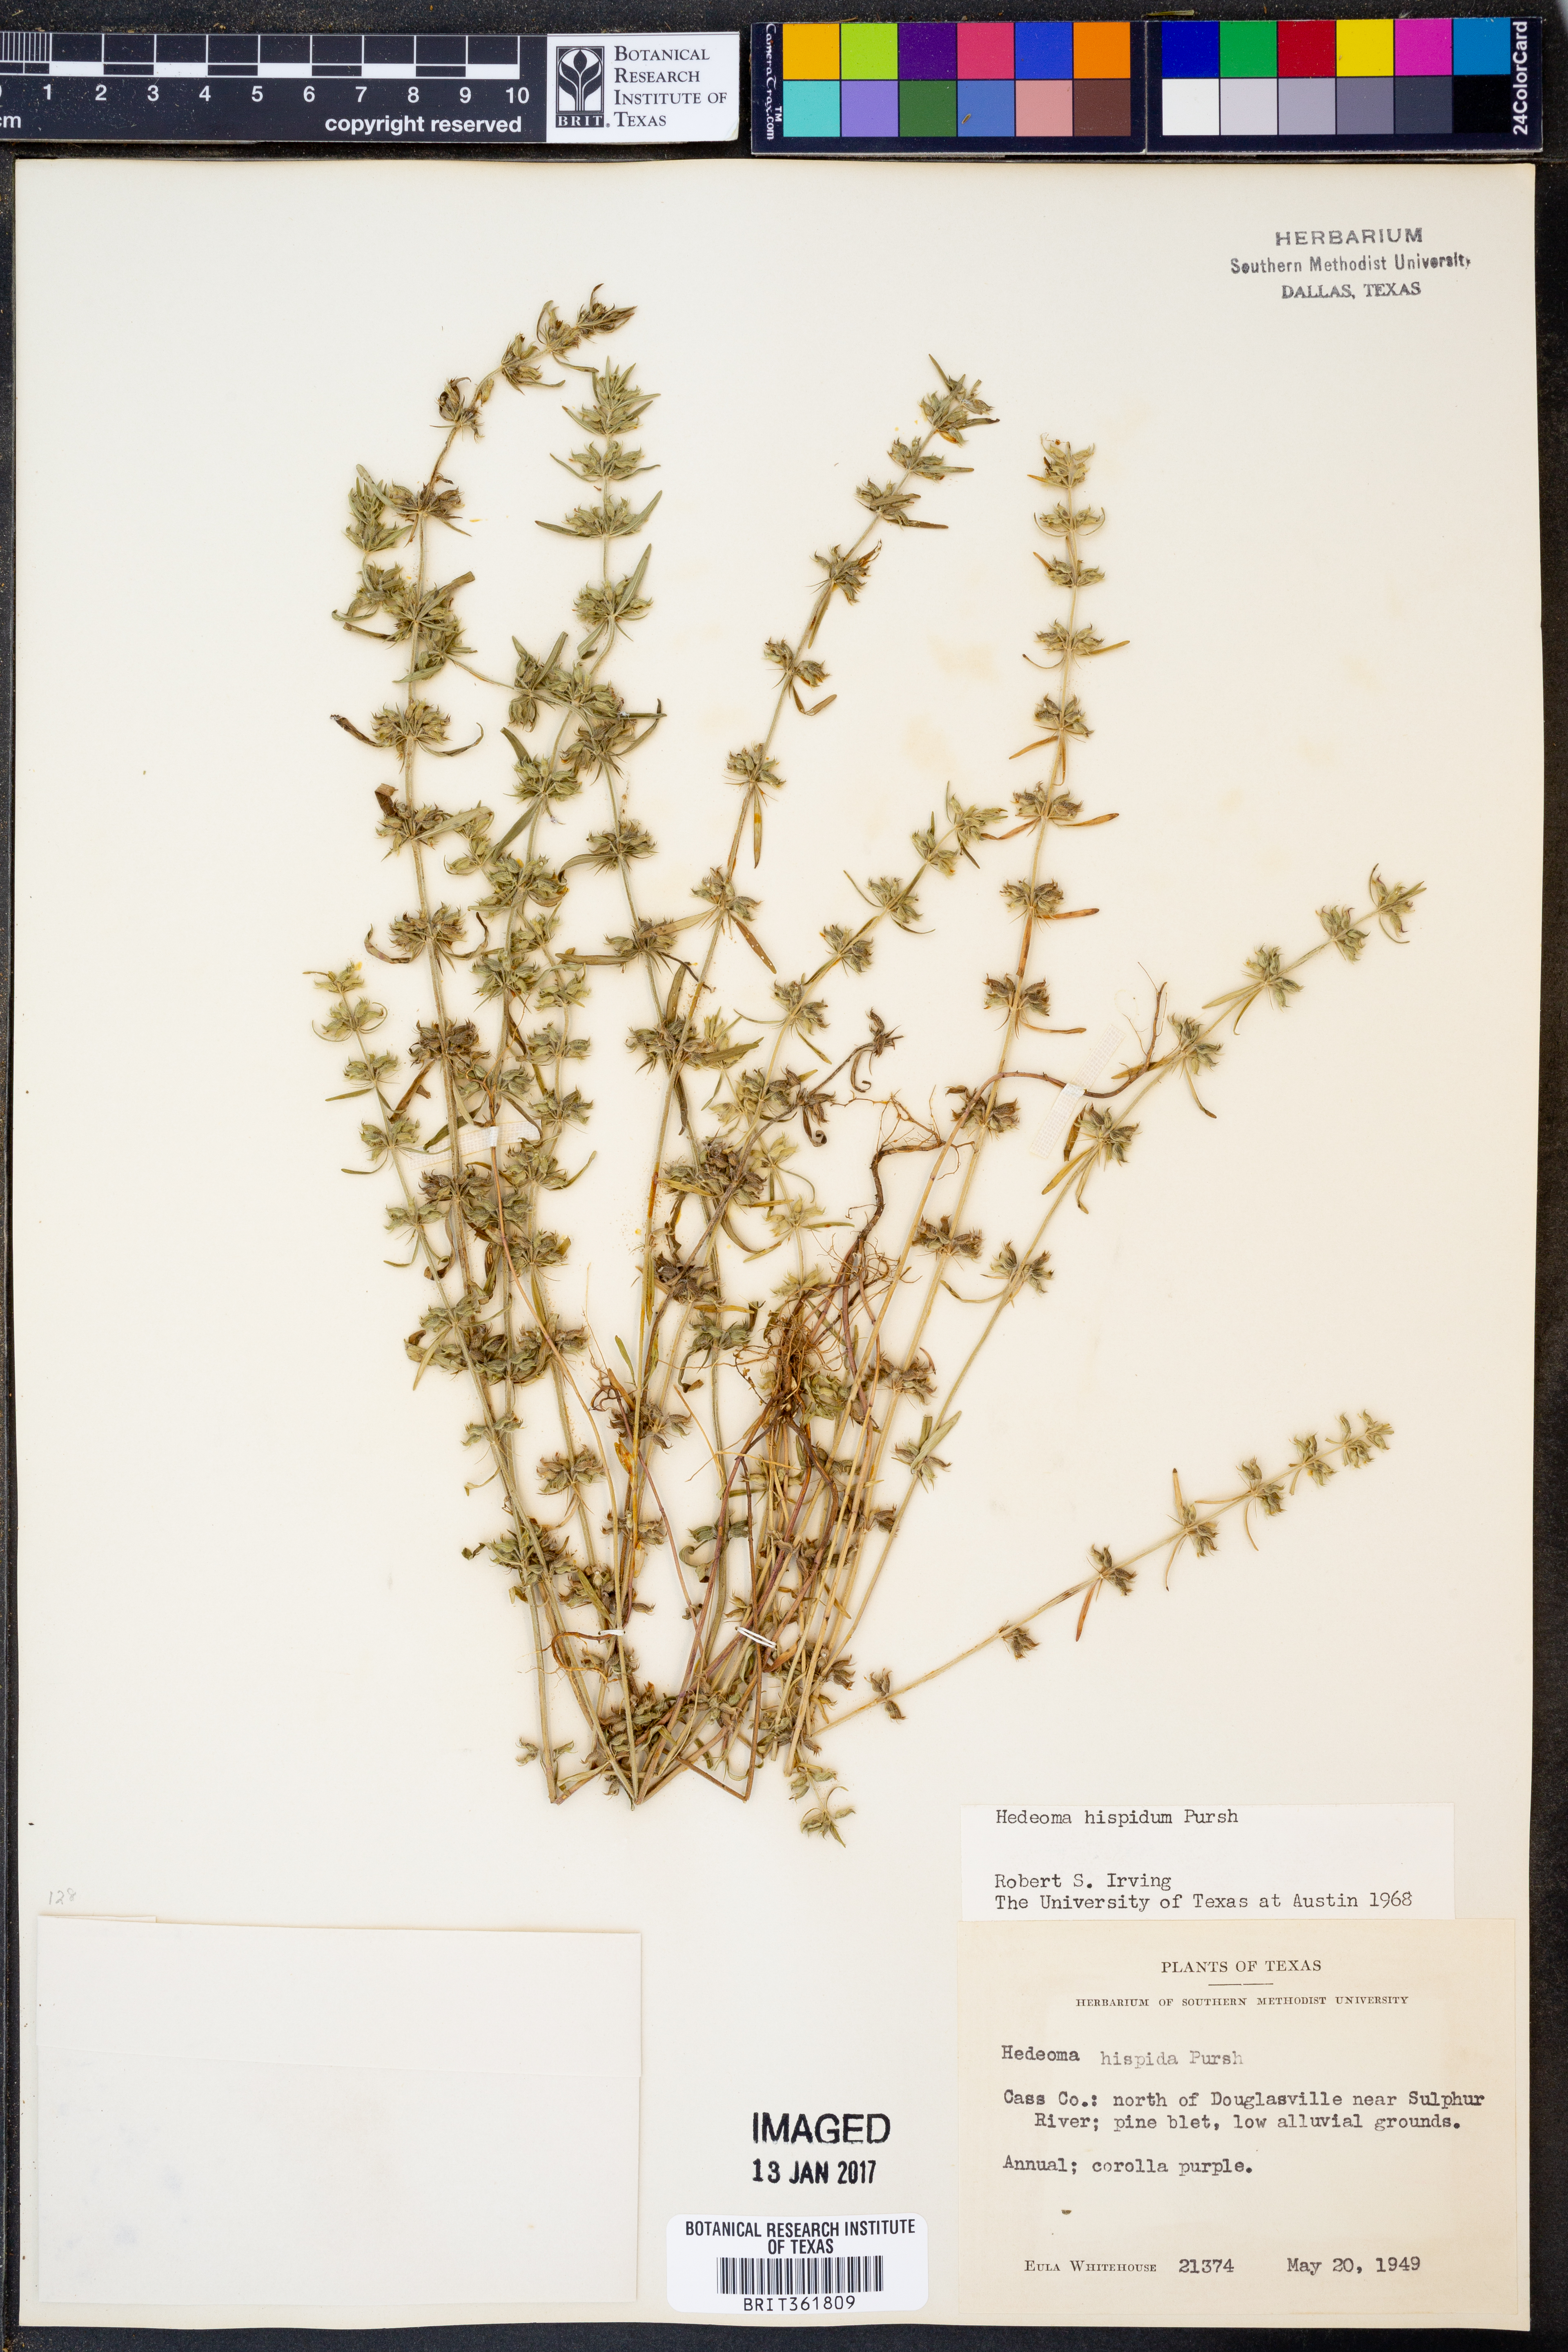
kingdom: Plantae
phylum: Tracheophyta
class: Magnoliopsida
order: Lamiales
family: Lamiaceae
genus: Hedeoma
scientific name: Hedeoma hispida
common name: Mock pennyroyal
